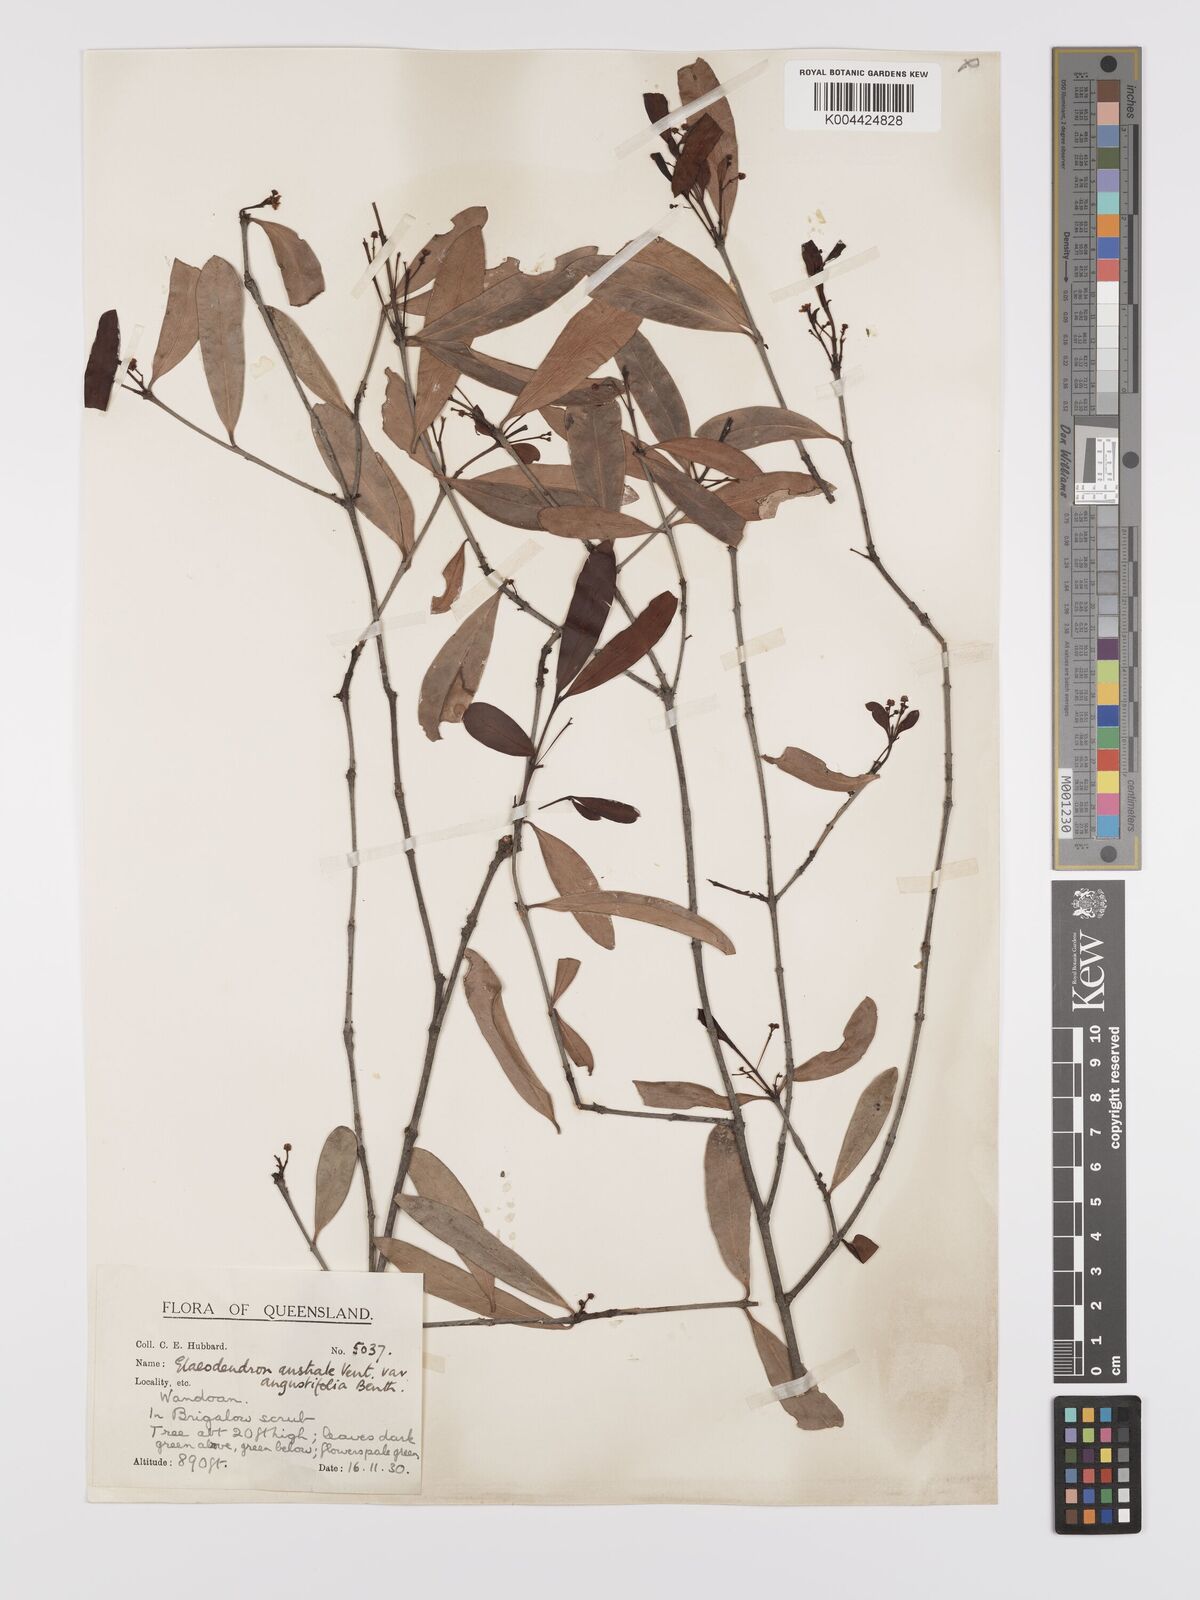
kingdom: Plantae
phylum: Tracheophyta
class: Magnoliopsida
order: Celastrales
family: Celastraceae
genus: Elaeodendron
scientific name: Elaeodendron australe
